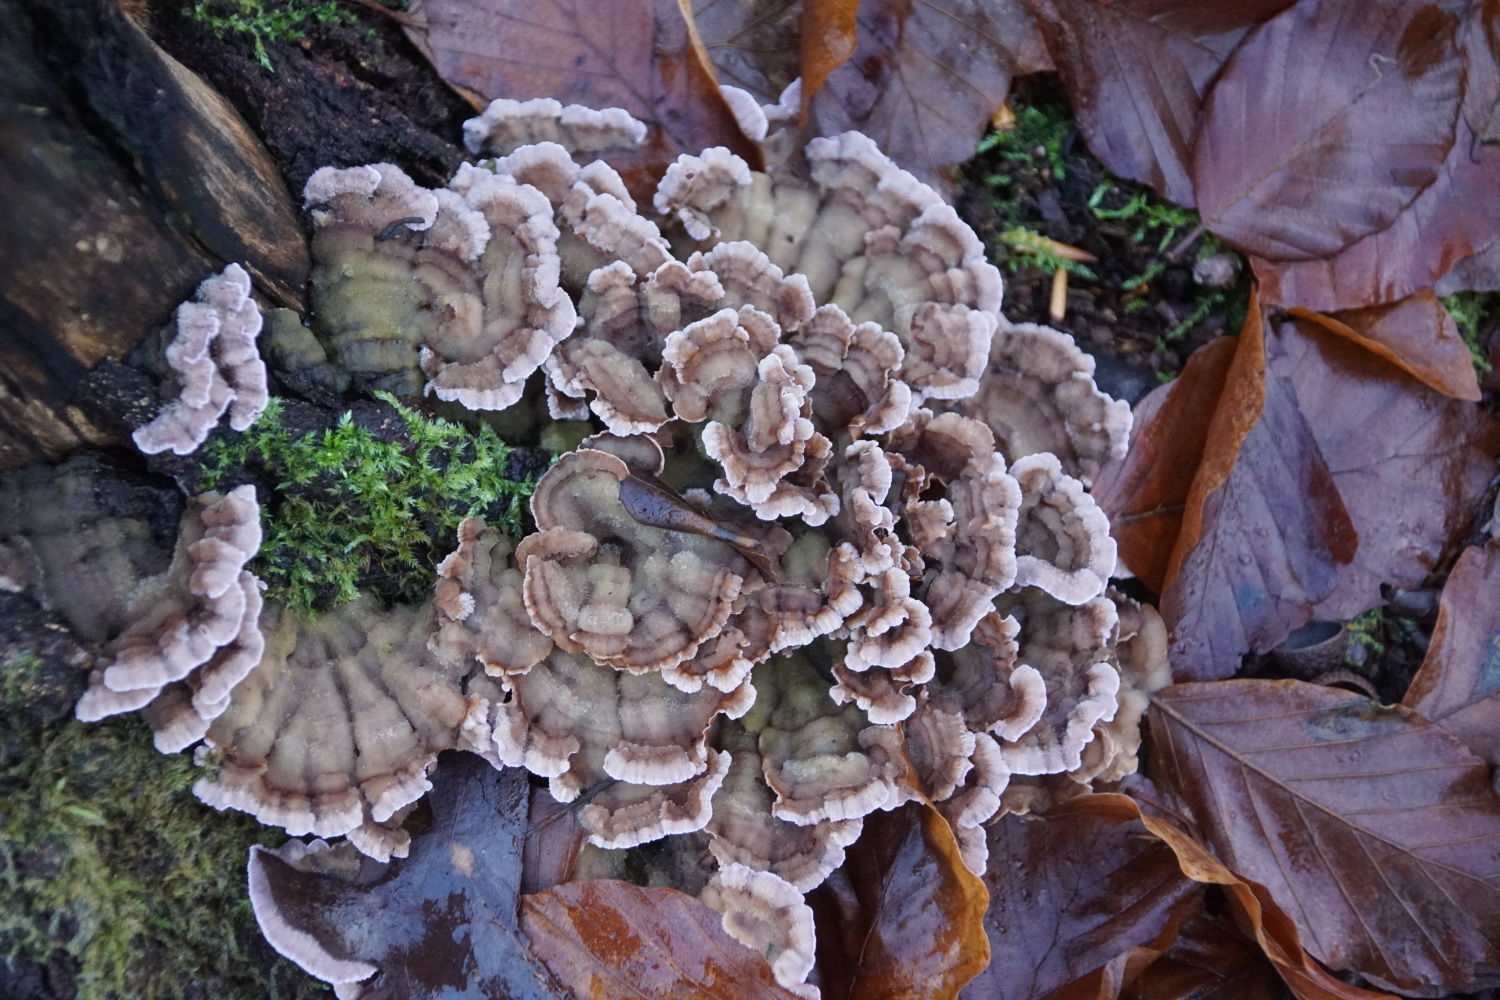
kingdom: Fungi
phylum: Basidiomycota
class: Agaricomycetes
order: Agaricales
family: Cyphellaceae
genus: Chondrostereum
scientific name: Chondrostereum purpureum
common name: purpurlædersvamp
